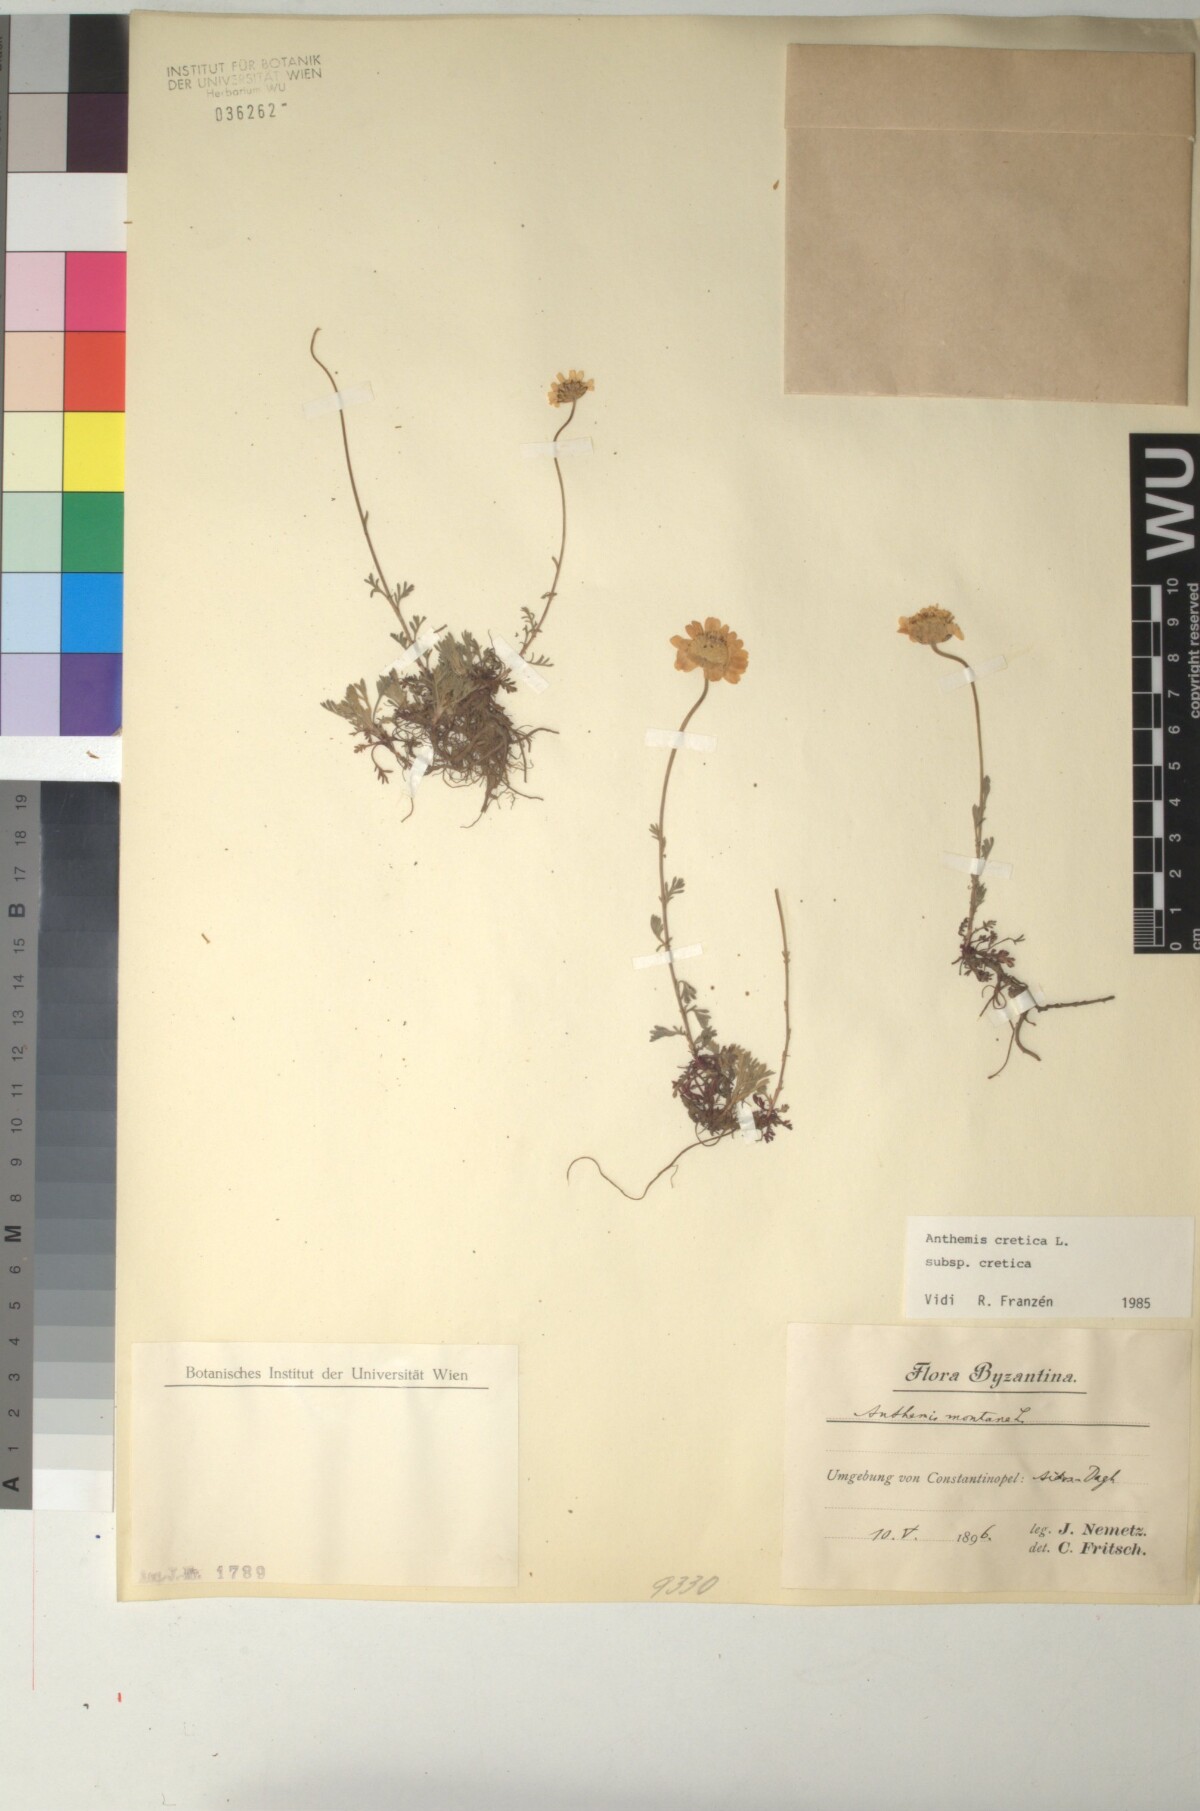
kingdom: Plantae
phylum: Tracheophyta
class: Magnoliopsida
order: Asterales
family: Asteraceae
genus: Anthemis
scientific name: Anthemis cretica
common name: Mountain dog-daisy
